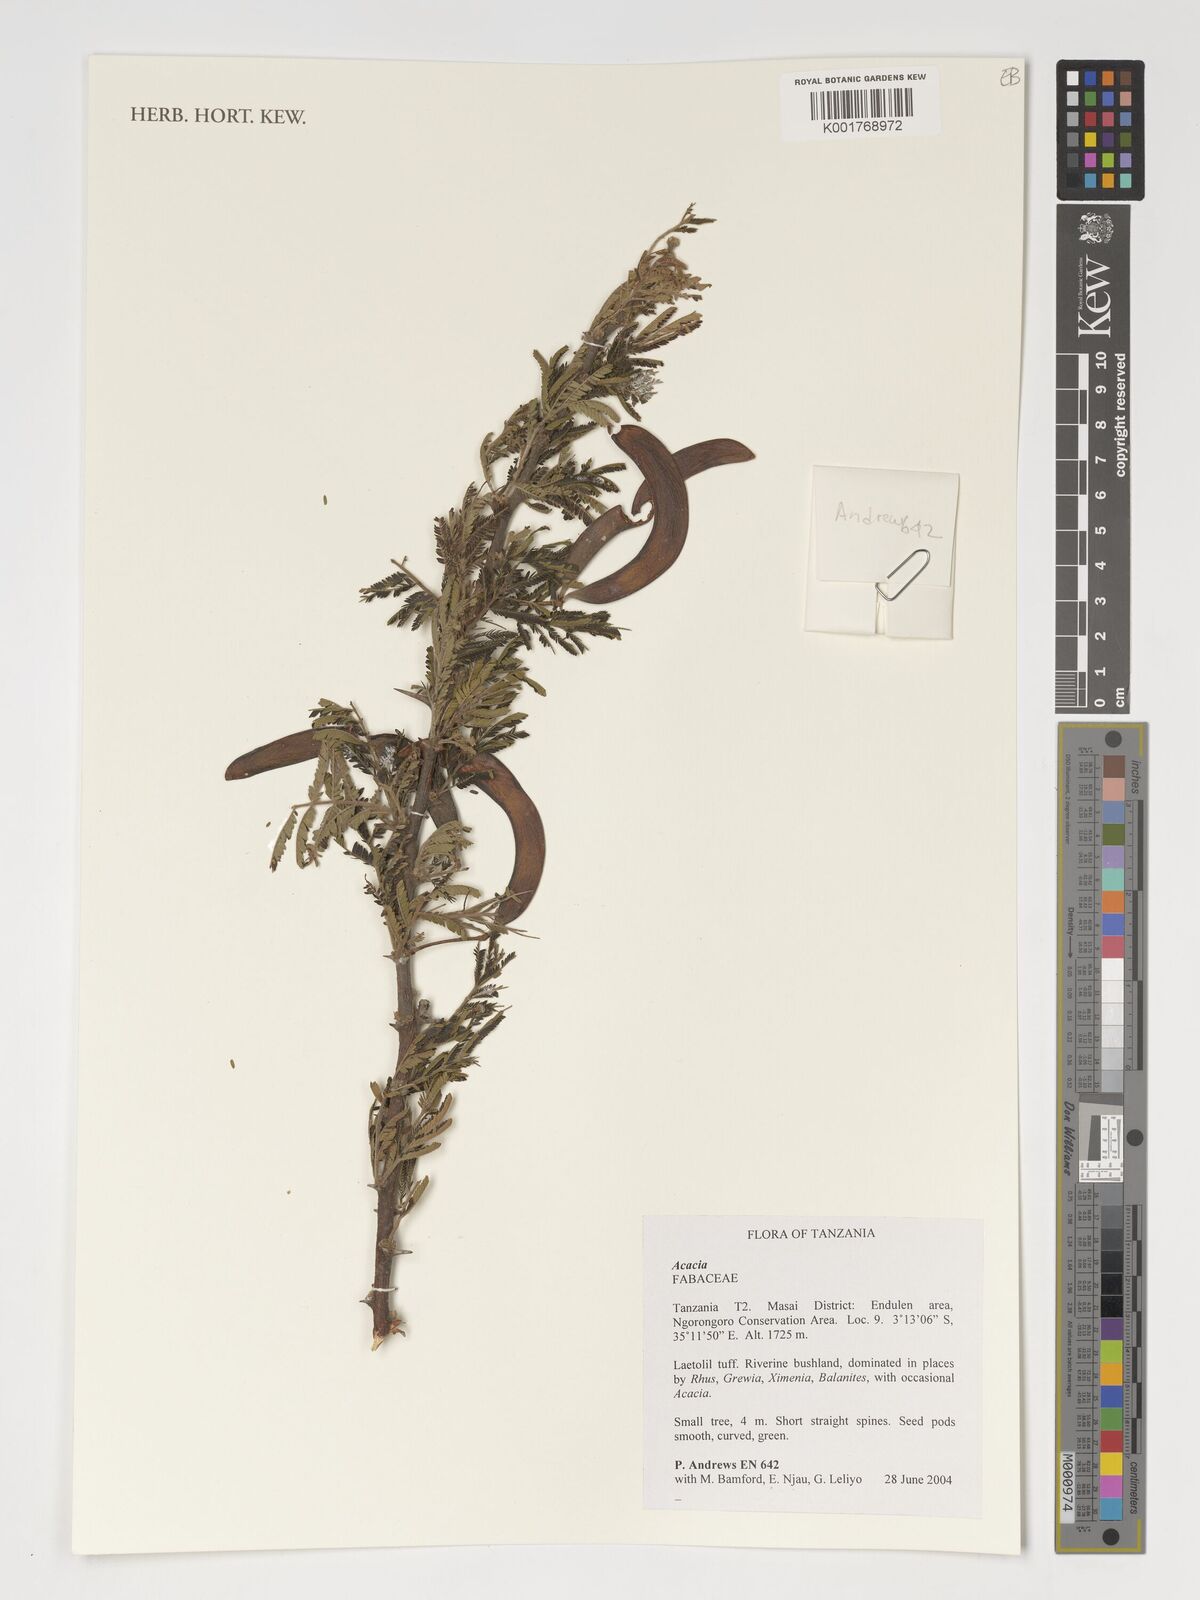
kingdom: Plantae
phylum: Tracheophyta
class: Magnoliopsida
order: Fabales
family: Fabaceae
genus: Acacia
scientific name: Acacia
